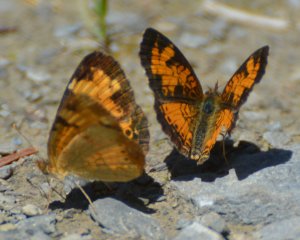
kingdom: Animalia
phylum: Arthropoda
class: Insecta
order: Lepidoptera
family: Nymphalidae
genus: Phyciodes
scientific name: Phyciodes tharos
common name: Northern Crescent
